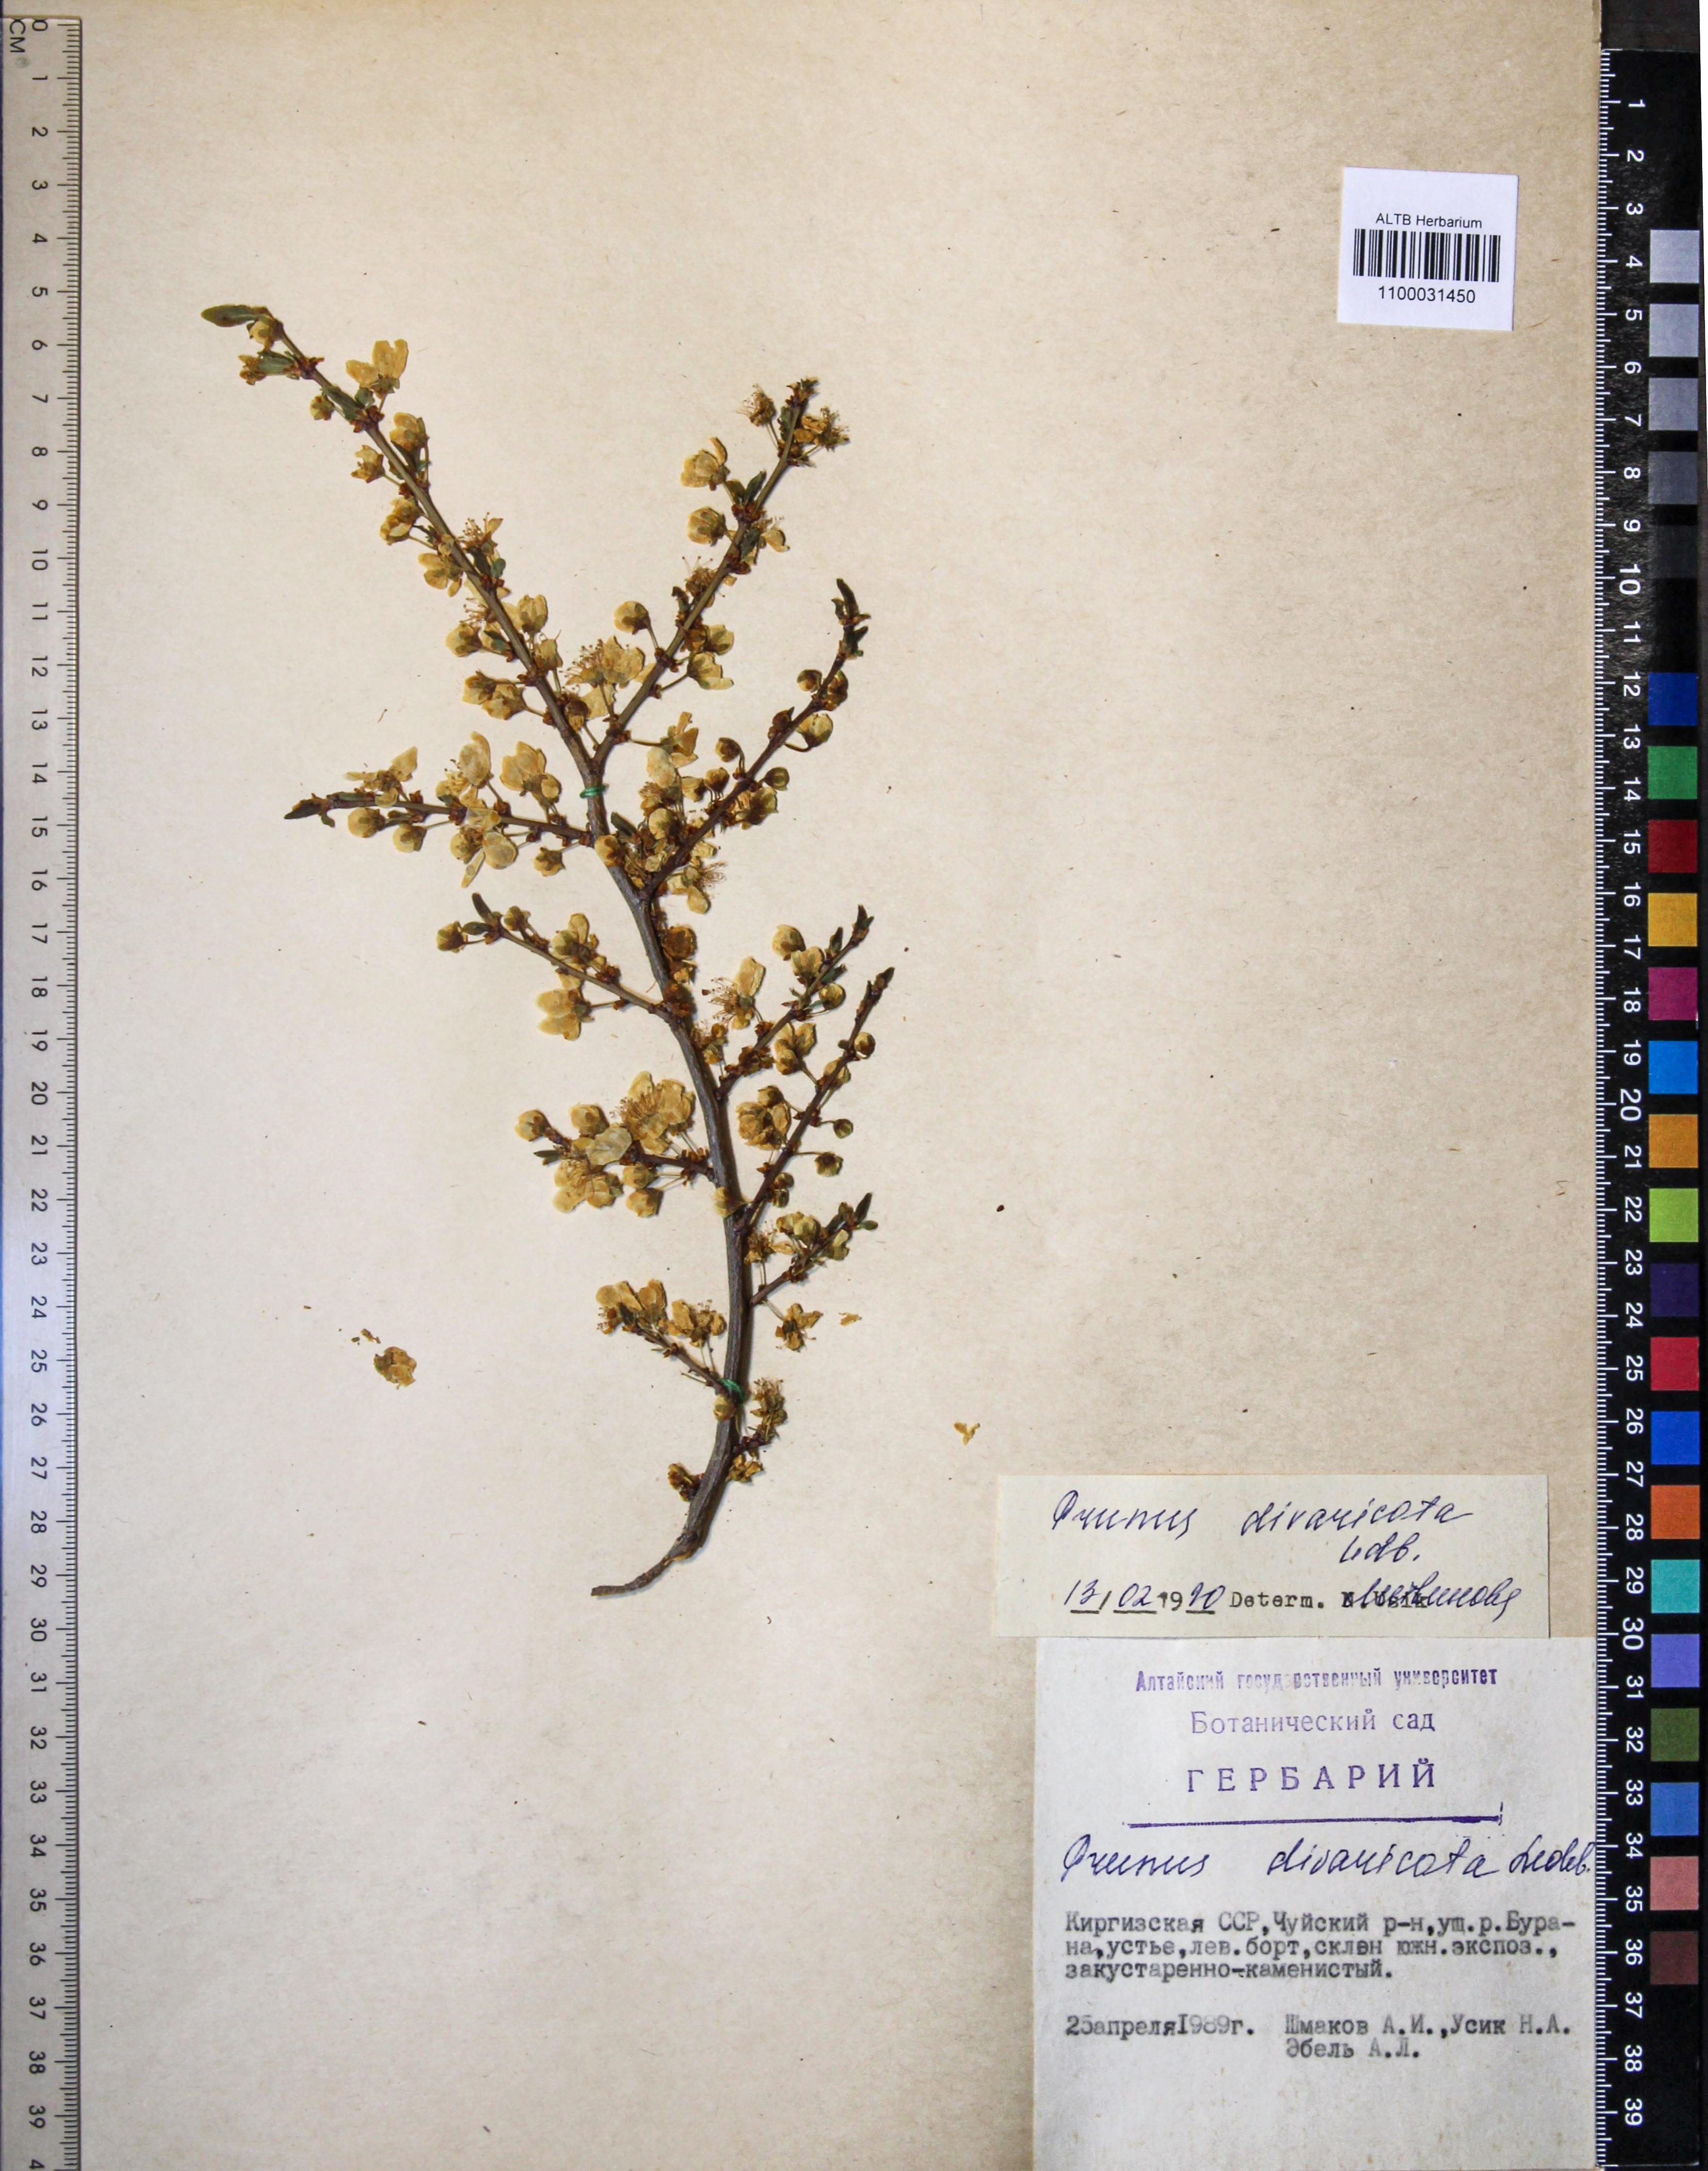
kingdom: Plantae
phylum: Tracheophyta
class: Magnoliopsida
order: Rosales
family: Rosaceae
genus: Prunus
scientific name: Prunus cerasifera
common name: Cherry plum
